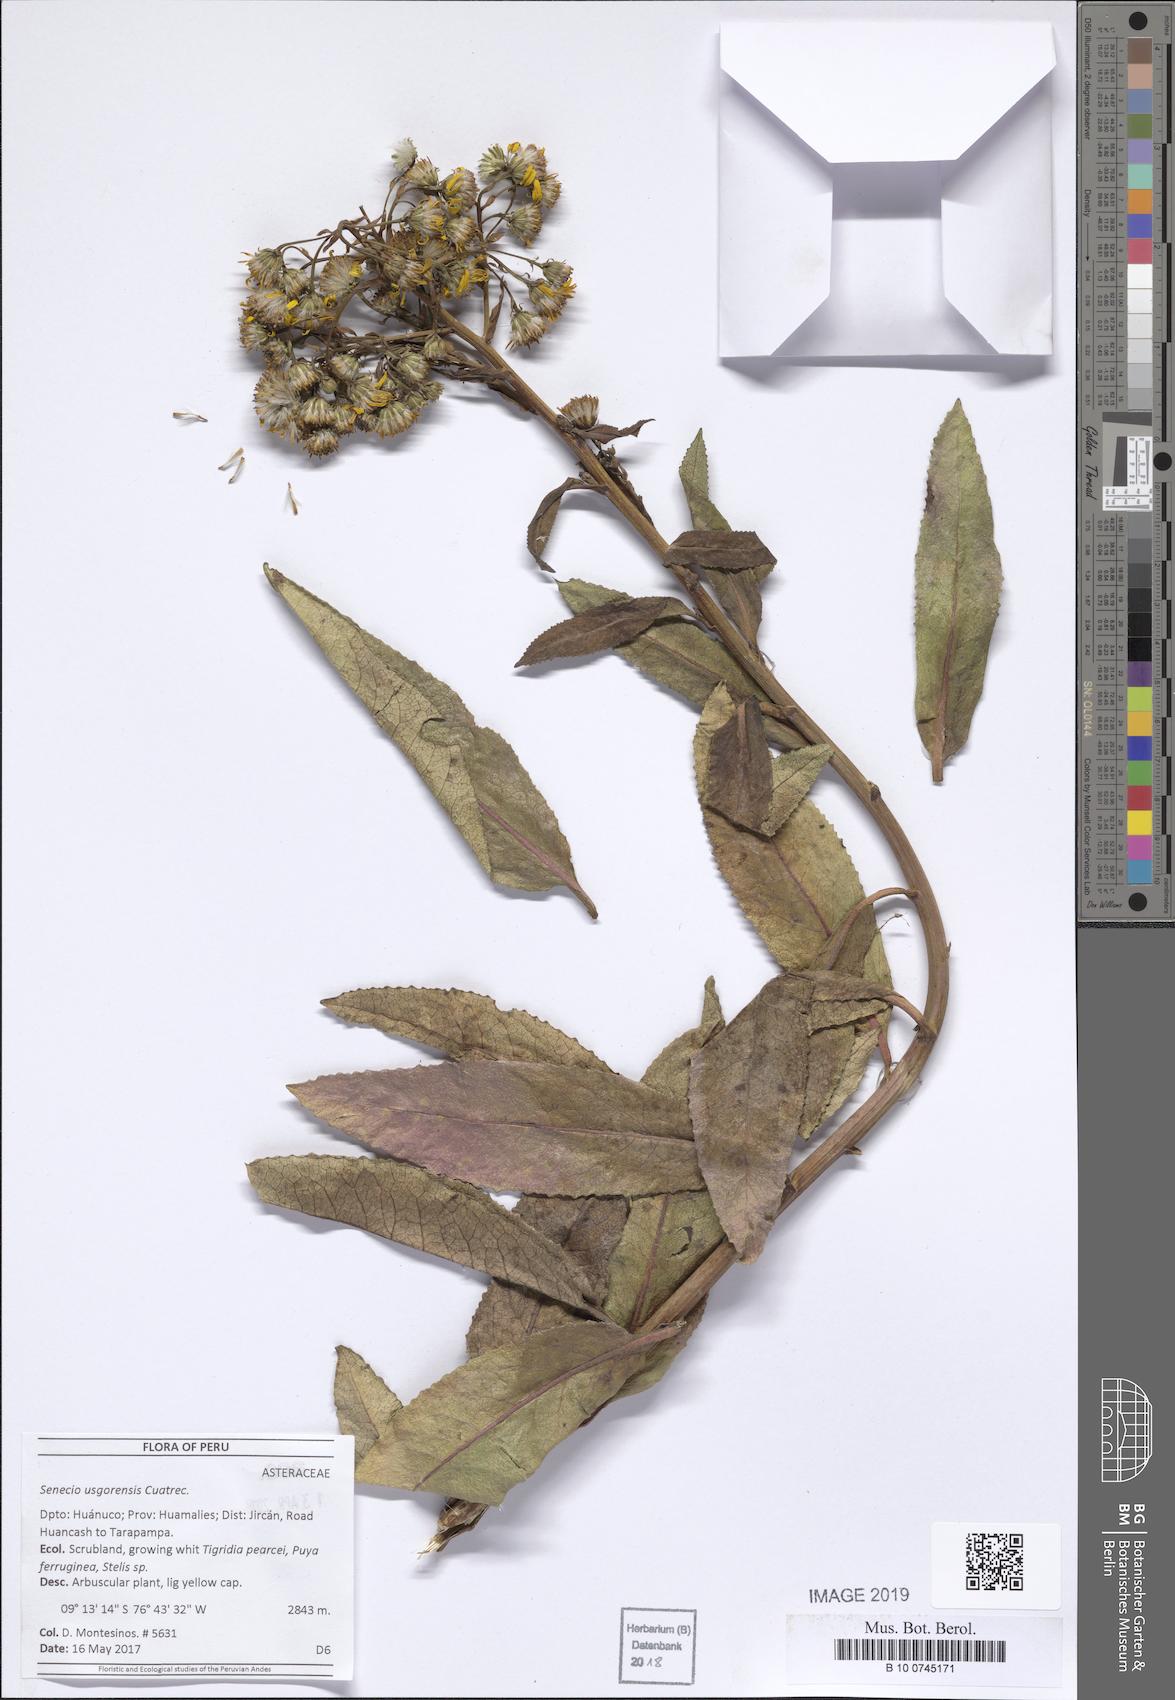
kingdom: Plantae
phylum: Tracheophyta
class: Magnoliopsida
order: Asterales
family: Asteraceae
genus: Dendrophorbium
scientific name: Dendrophorbium elatum
